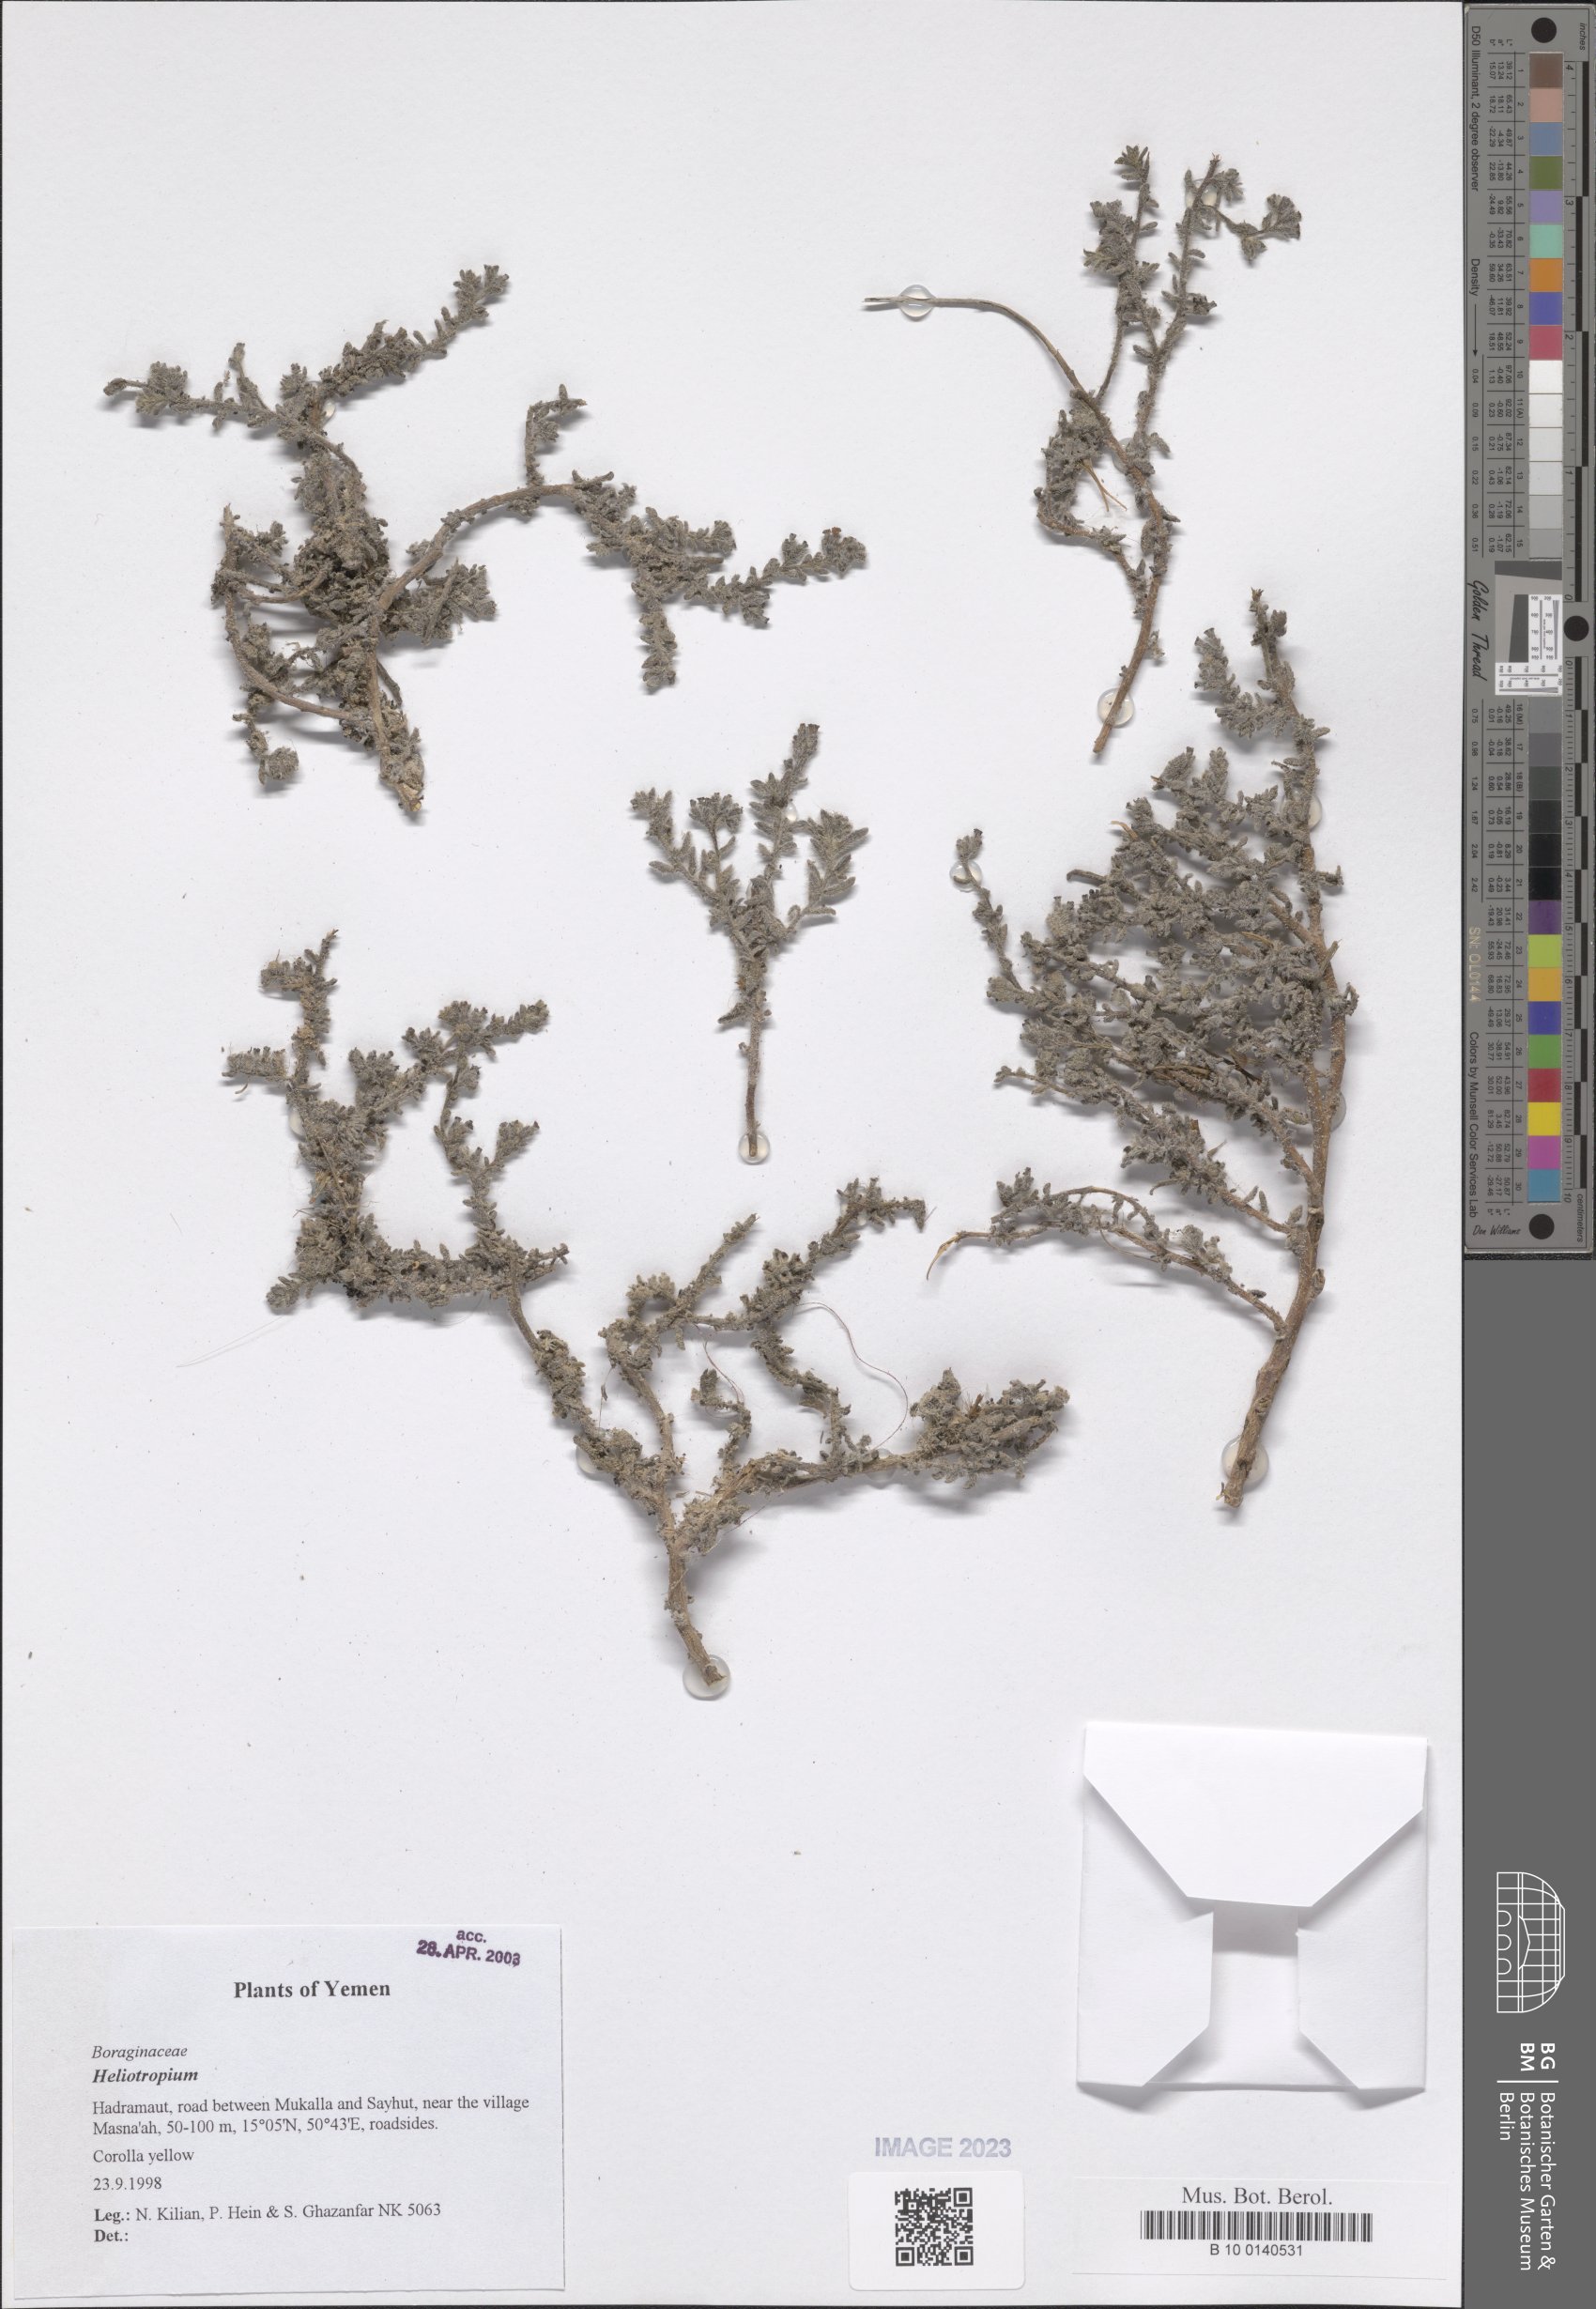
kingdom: Plantae
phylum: Tracheophyta
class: Magnoliopsida
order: Boraginales
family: Heliotropiaceae
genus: Heliotropium
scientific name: Heliotropium
